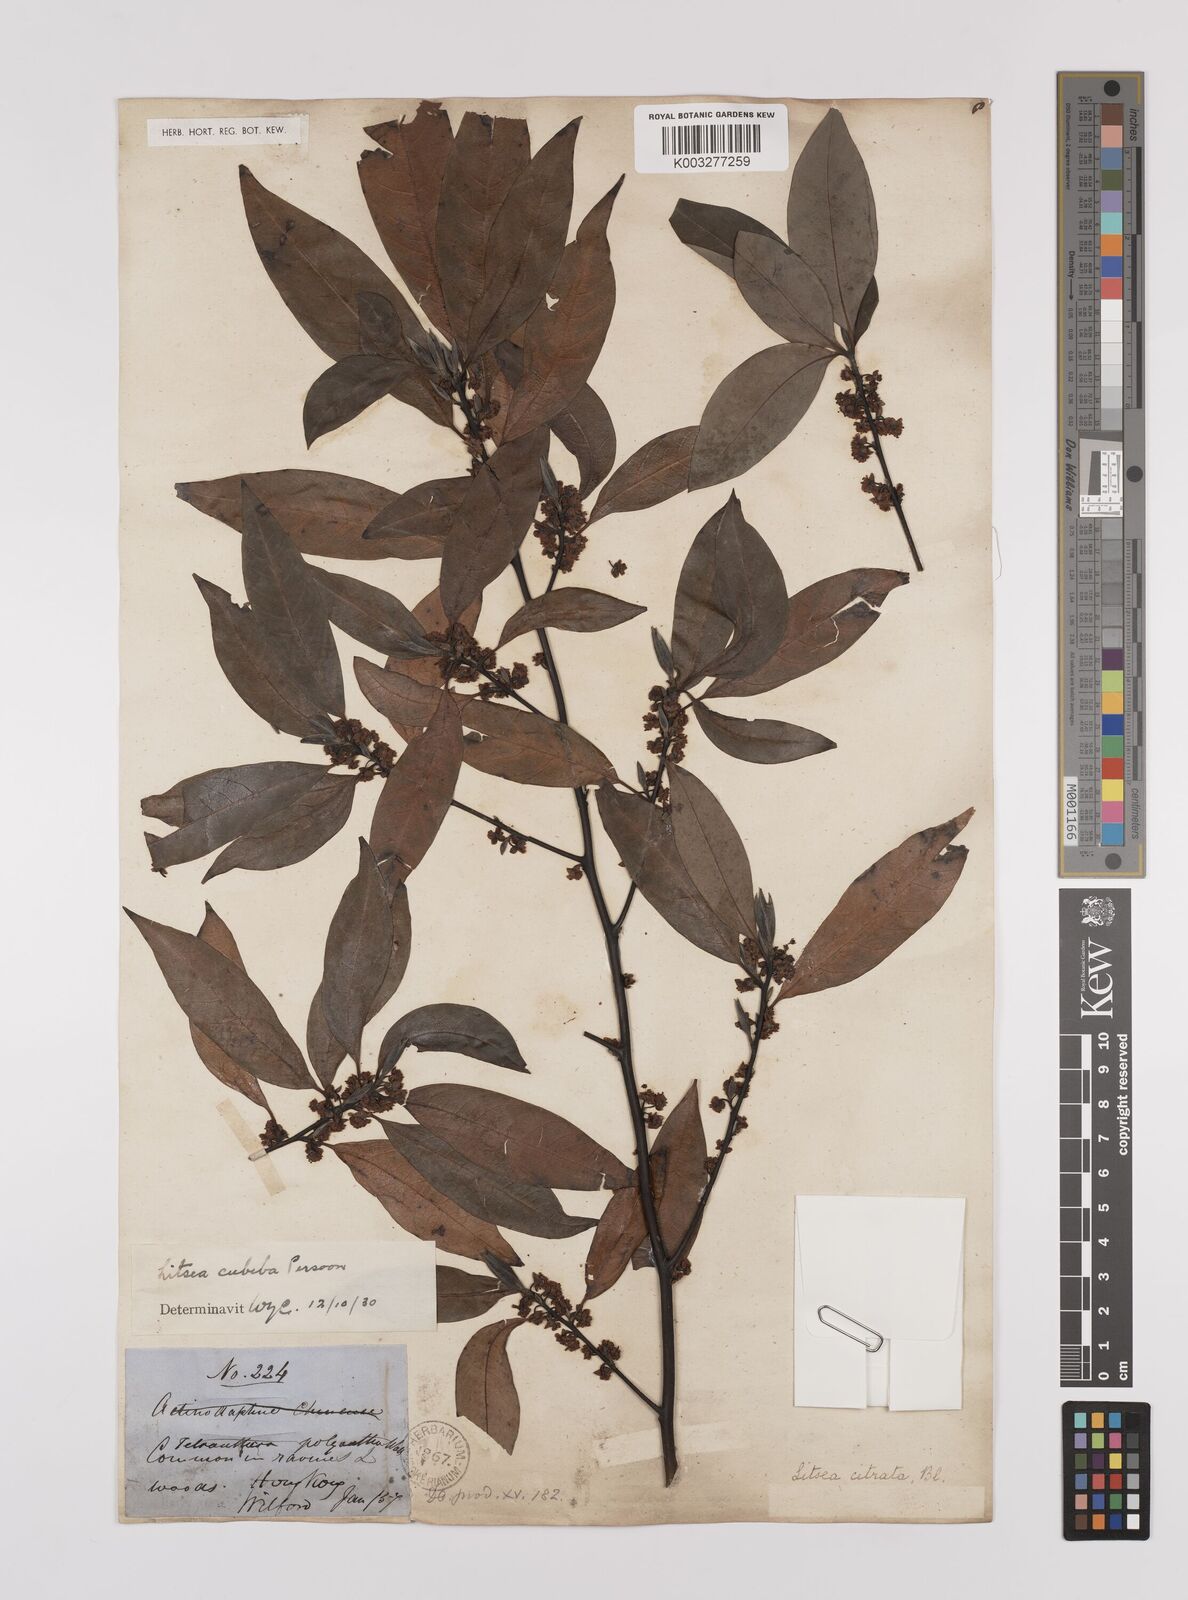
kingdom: Plantae
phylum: Tracheophyta
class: Magnoliopsida
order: Laurales
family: Lauraceae
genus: Litsea
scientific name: Litsea cubeba
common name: Mountain-pepper
